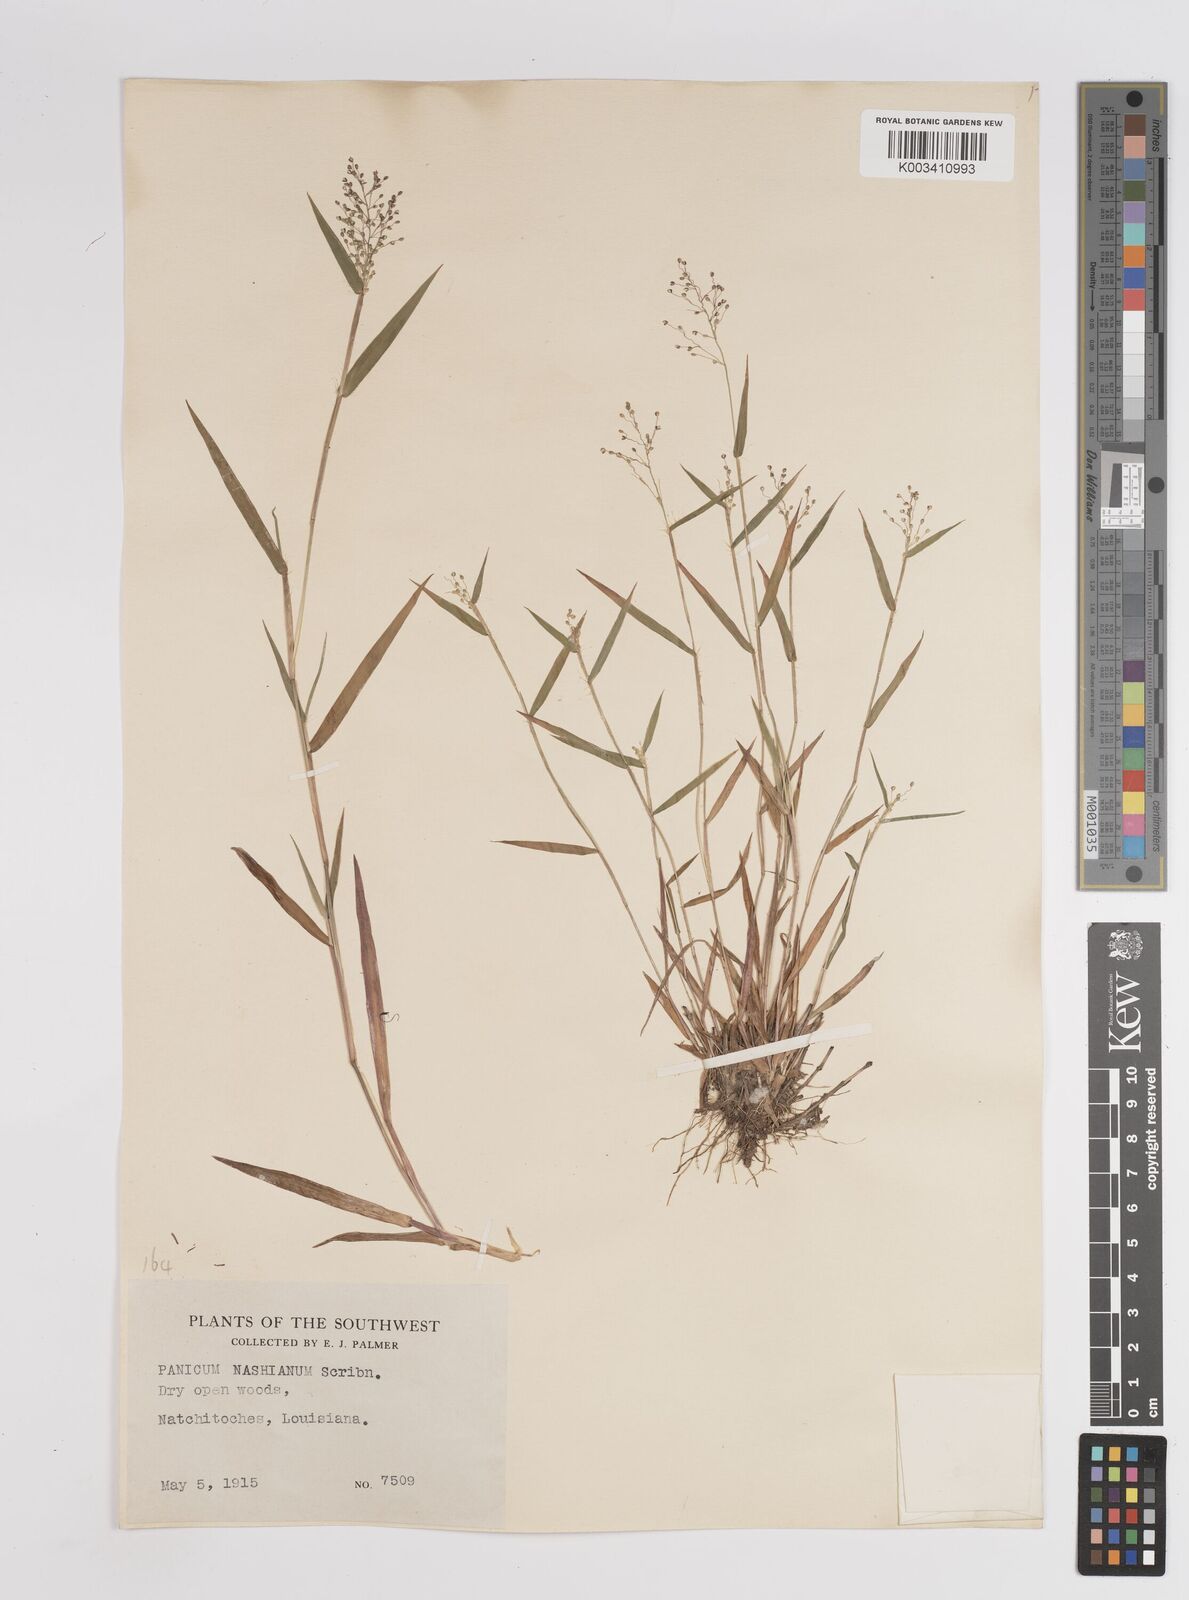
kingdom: Plantae
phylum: Tracheophyta
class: Liliopsida
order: Poales
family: Poaceae
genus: Dichanthelium
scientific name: Dichanthelium portoricense
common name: American panicgrass
